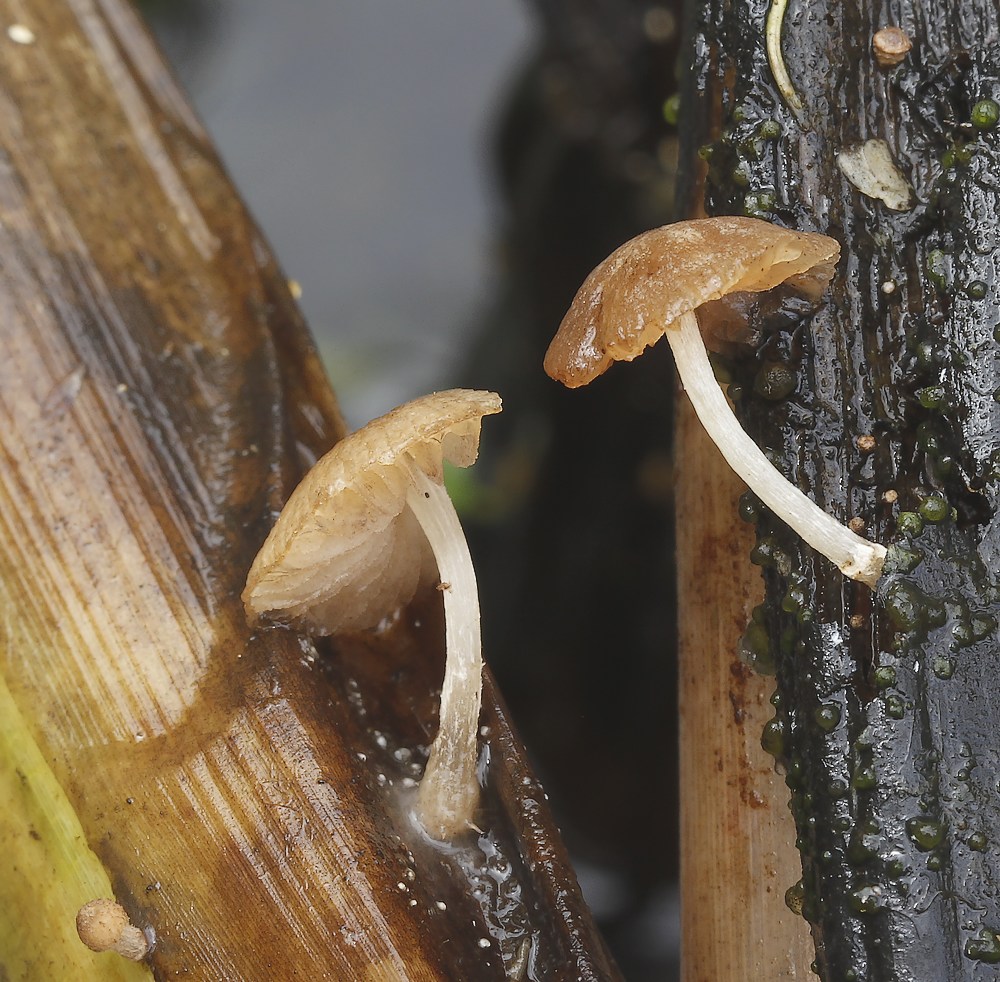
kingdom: Fungi
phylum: Basidiomycota
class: Agaricomycetes
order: Agaricales
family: Psathyrellaceae
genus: Candolleomyces
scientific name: Candolleomyces typhae
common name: dunhammer-mørkhat
